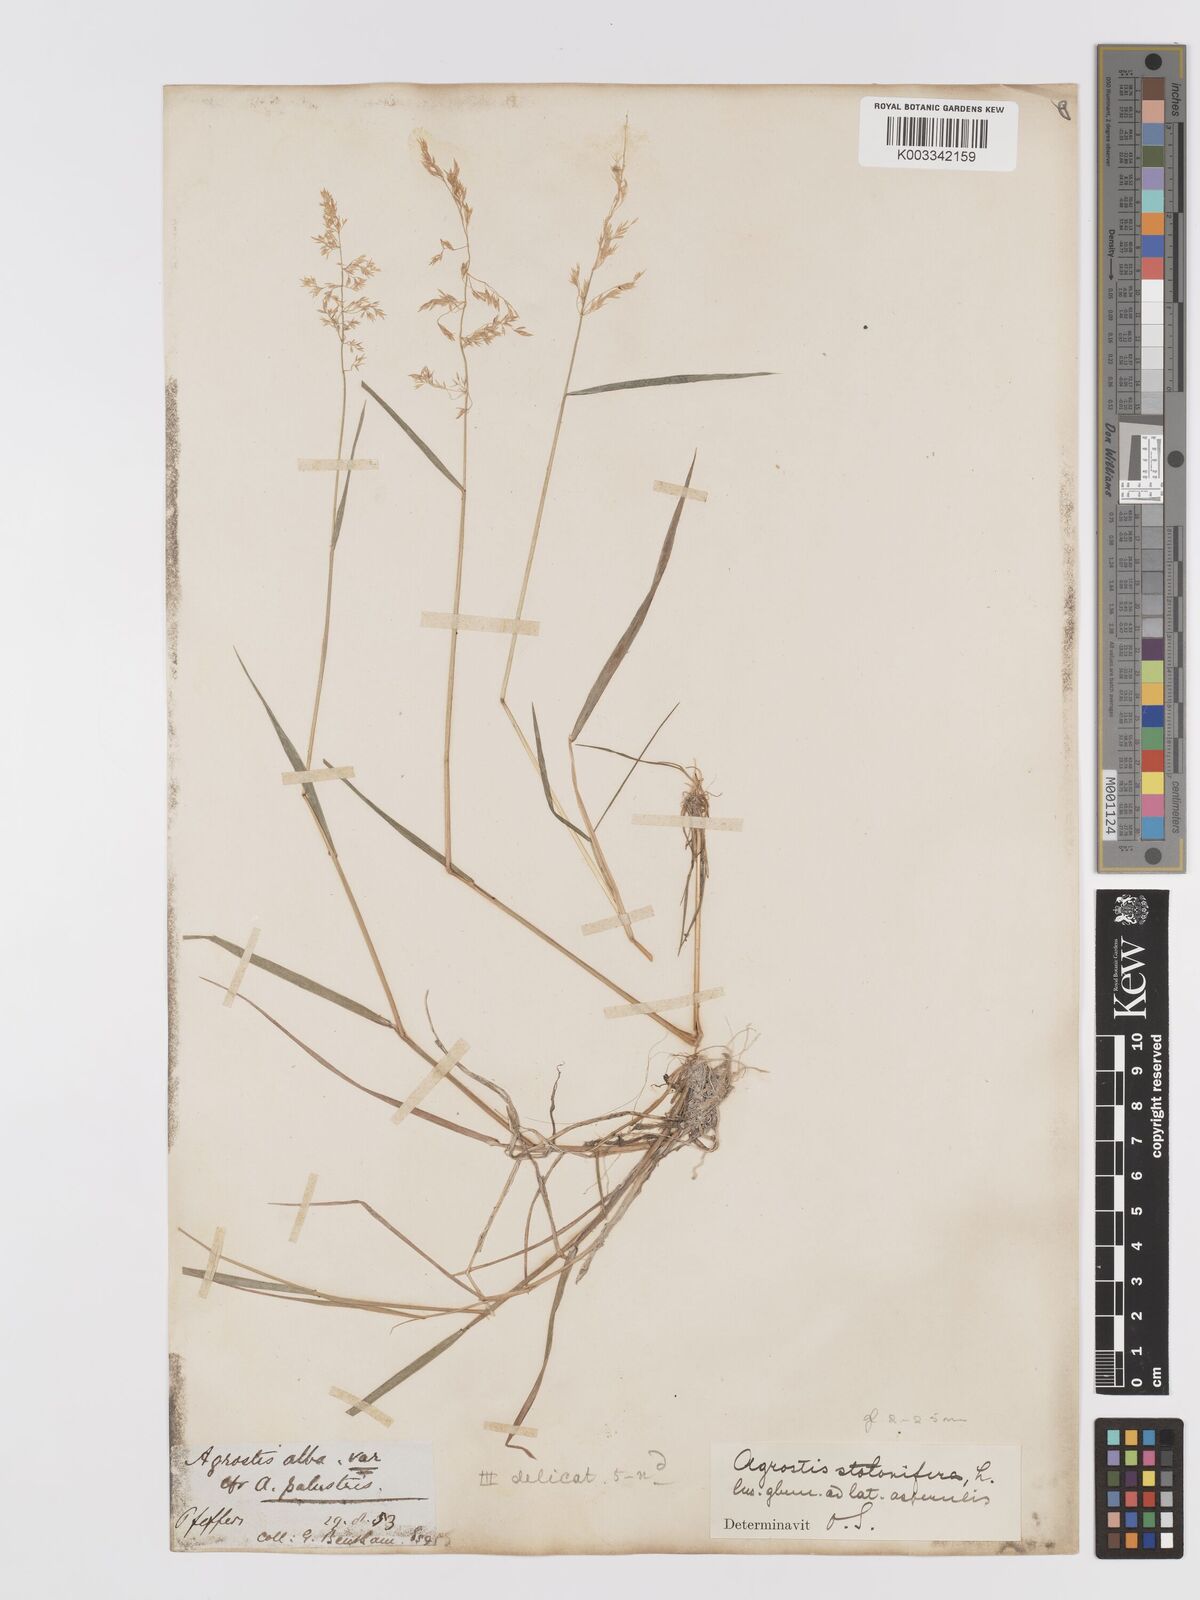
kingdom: Plantae
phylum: Tracheophyta
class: Liliopsida
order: Poales
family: Poaceae
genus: Agrostis
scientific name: Agrostis stolonifera
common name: Creeping bentgrass
